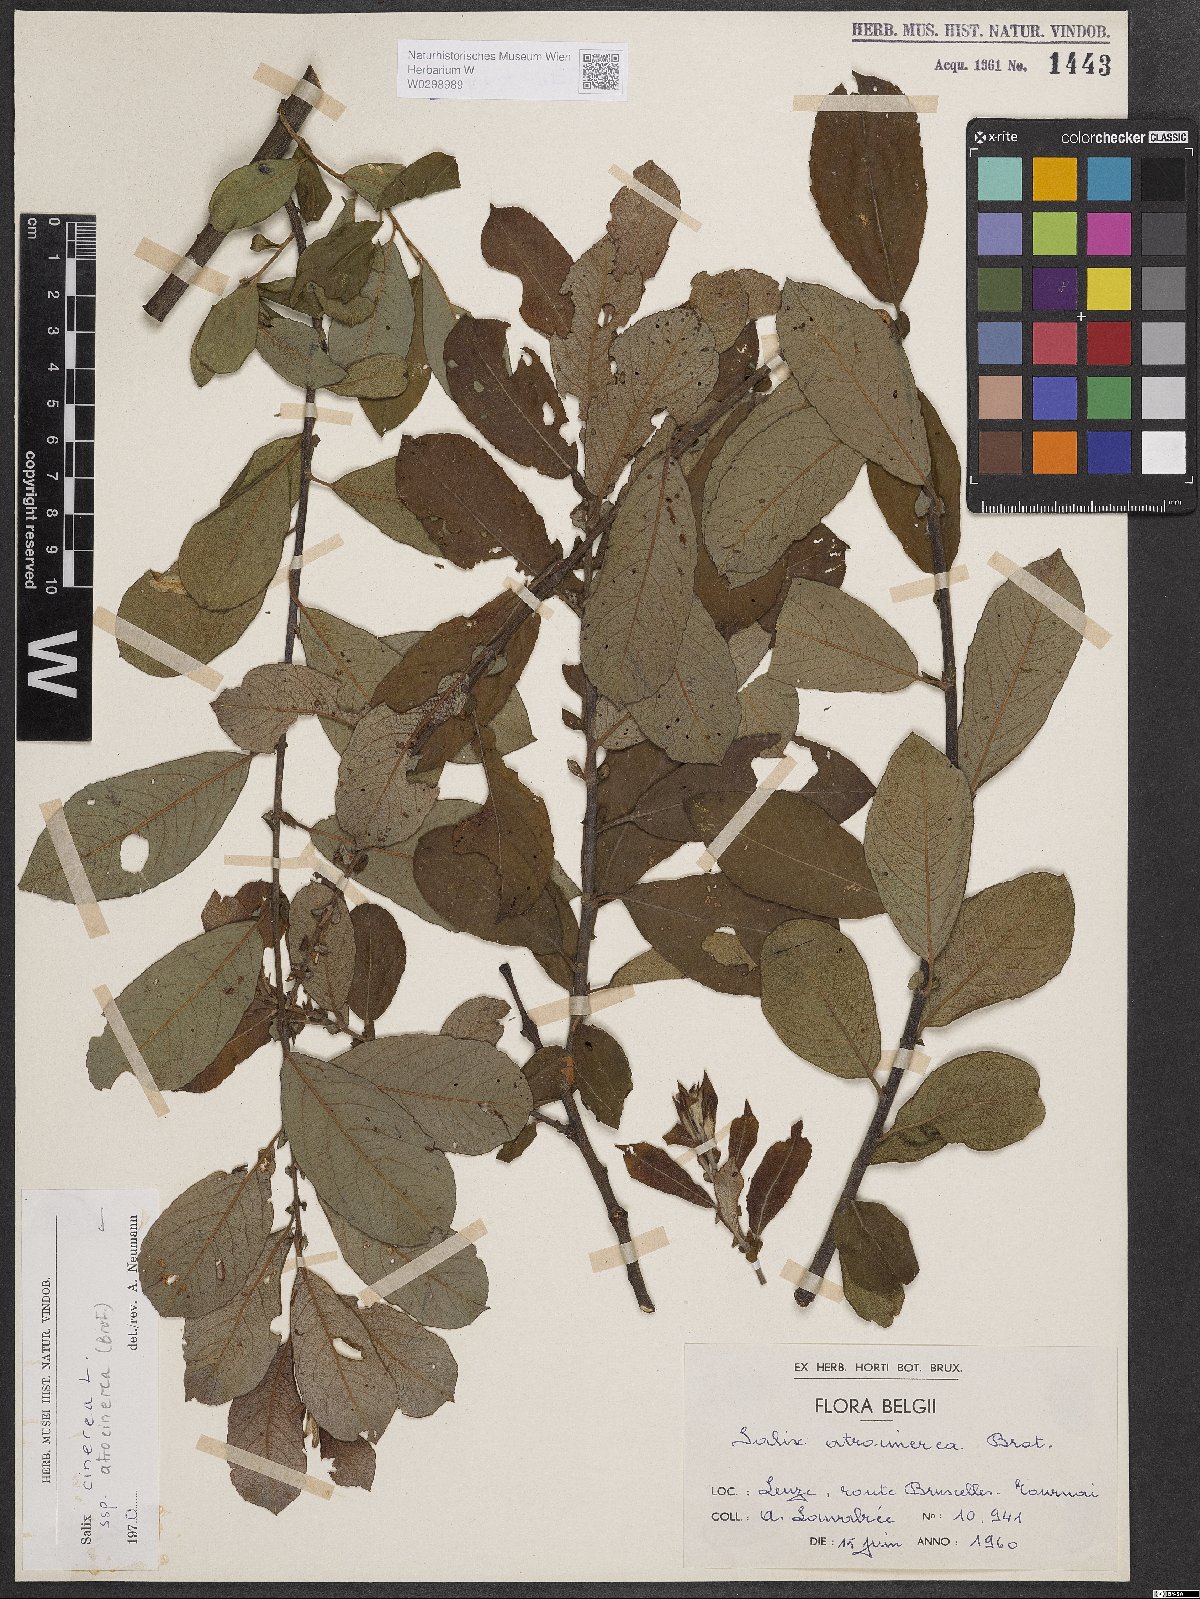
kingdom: Plantae
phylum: Tracheophyta
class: Magnoliopsida
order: Malpighiales
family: Salicaceae
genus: Salix
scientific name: Salix atrocinerea
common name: Rusty willow
